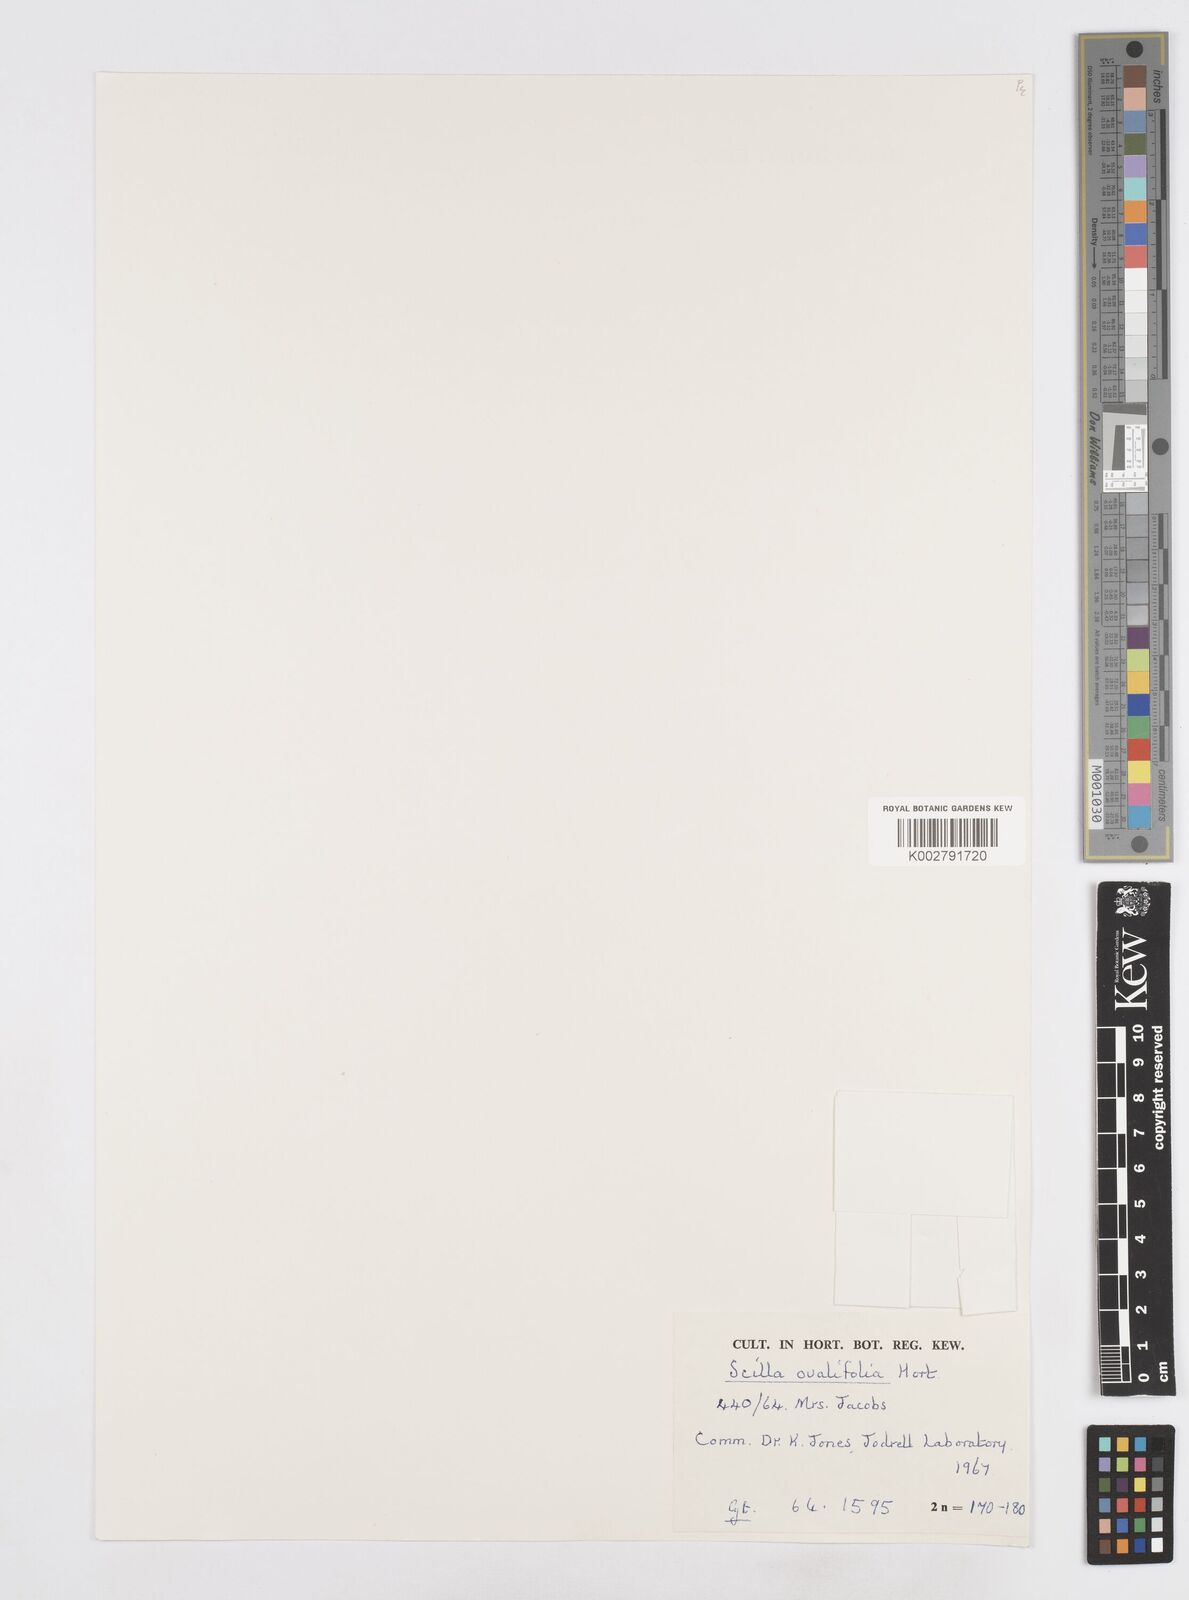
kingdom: Plantae
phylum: Tracheophyta
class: Liliopsida
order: Asparagales
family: Asparagaceae
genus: Ledebouria
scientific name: Ledebouria ovalifolia
